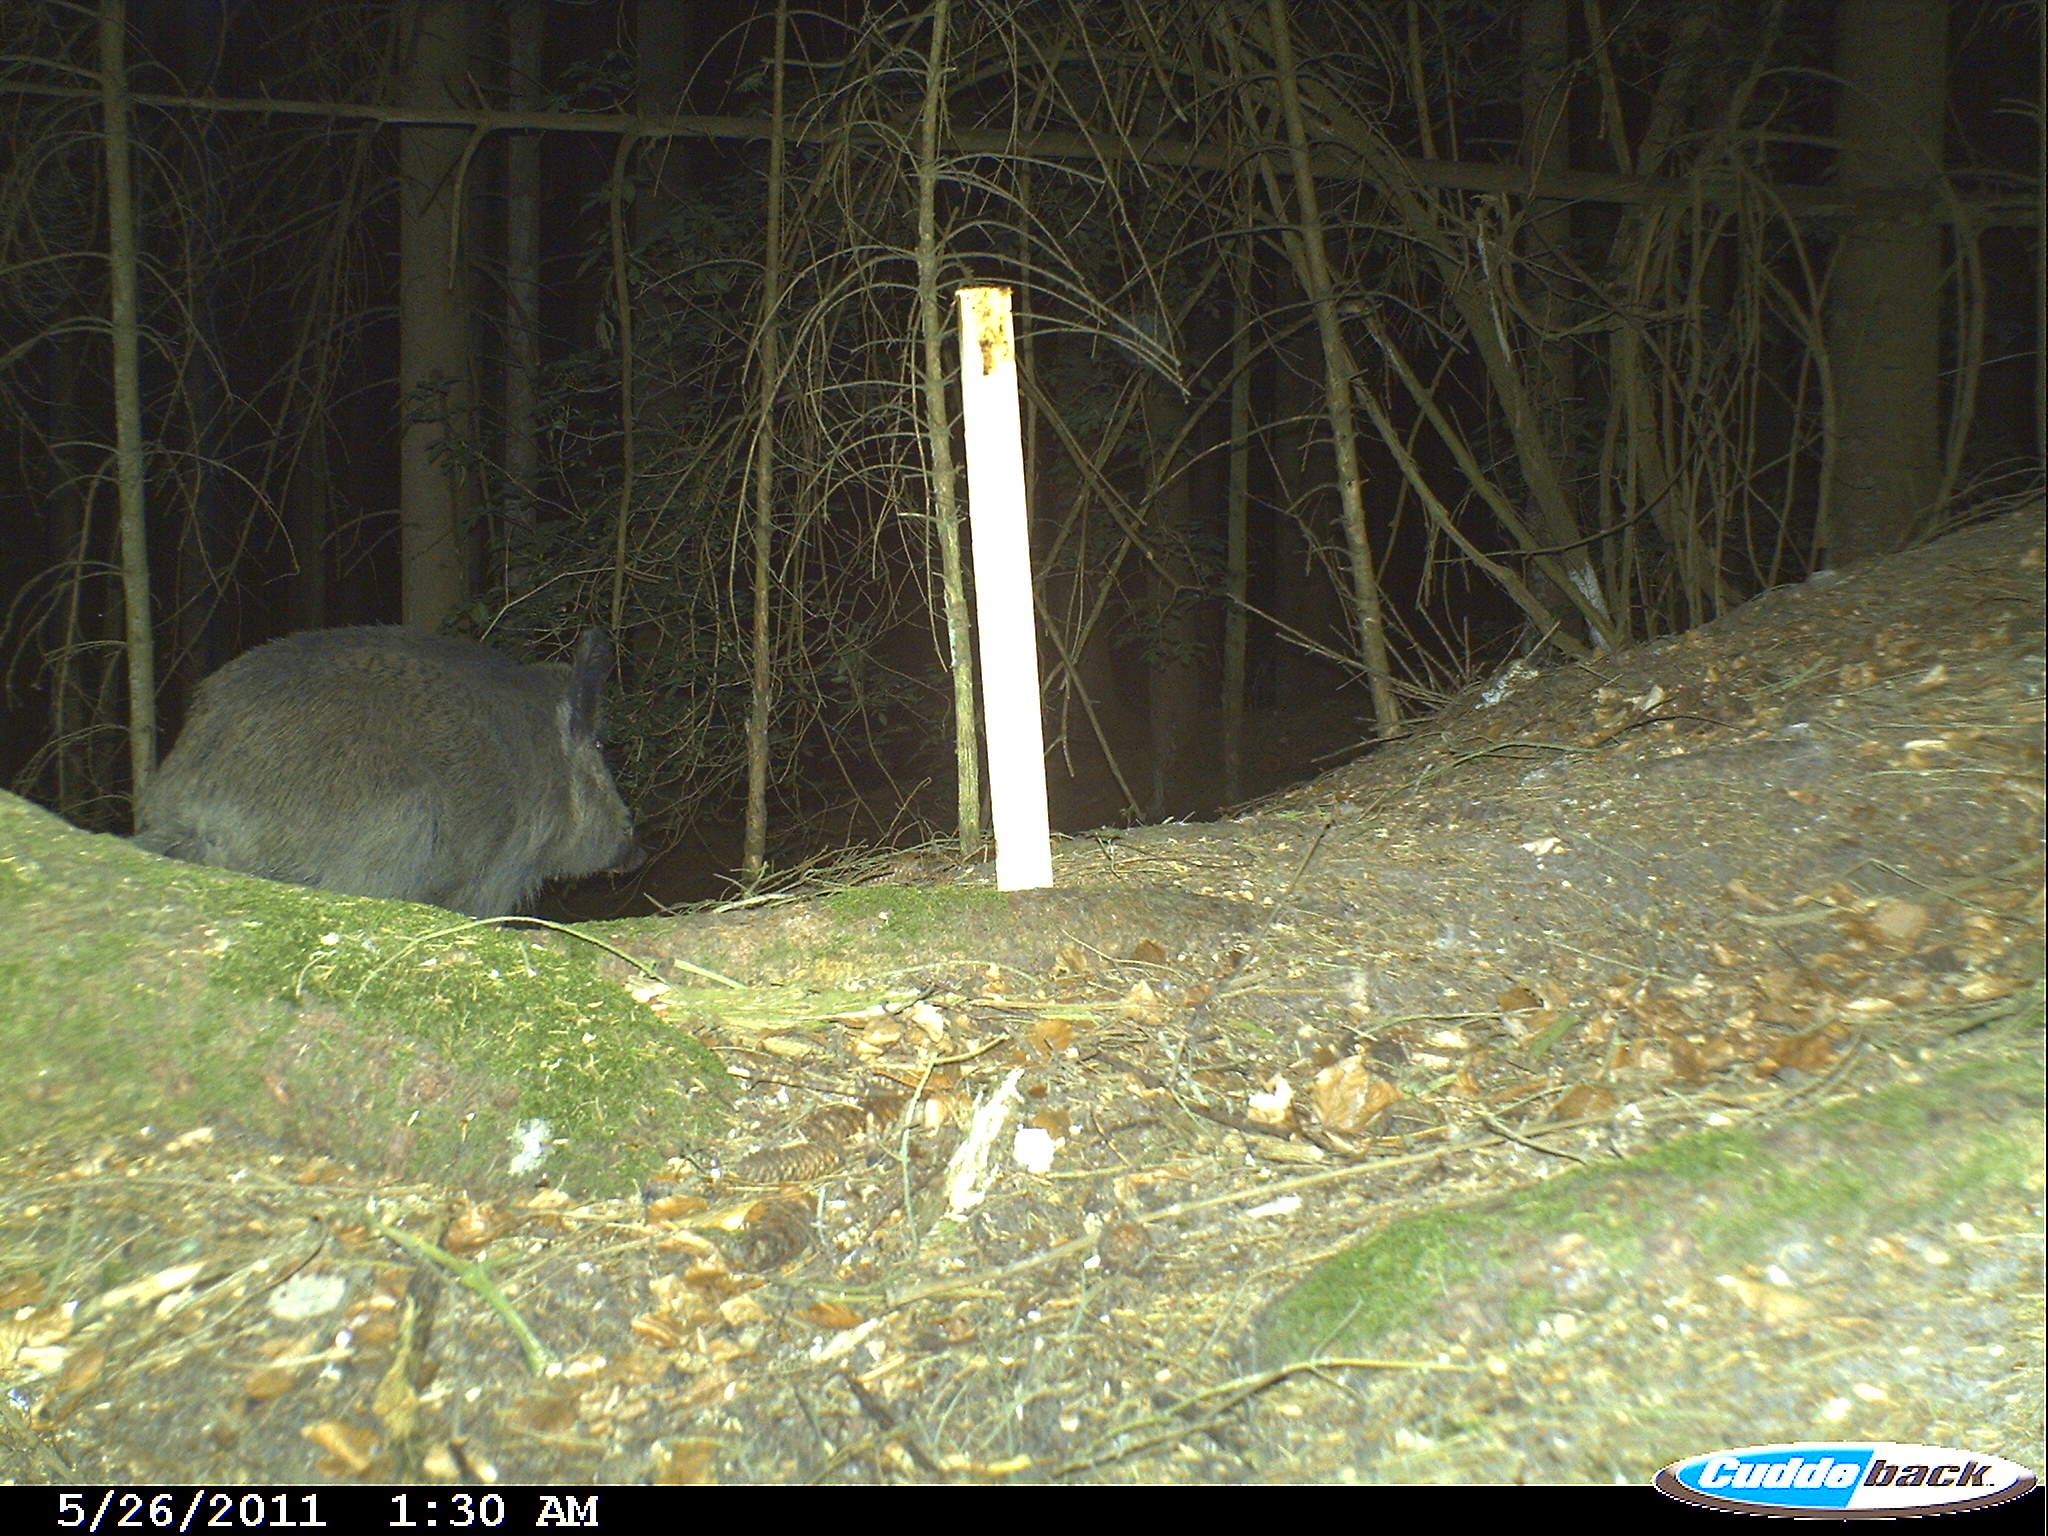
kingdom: Animalia
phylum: Chordata
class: Mammalia
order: Artiodactyla
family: Suidae
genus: Sus
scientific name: Sus scrofa
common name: Wild boar
